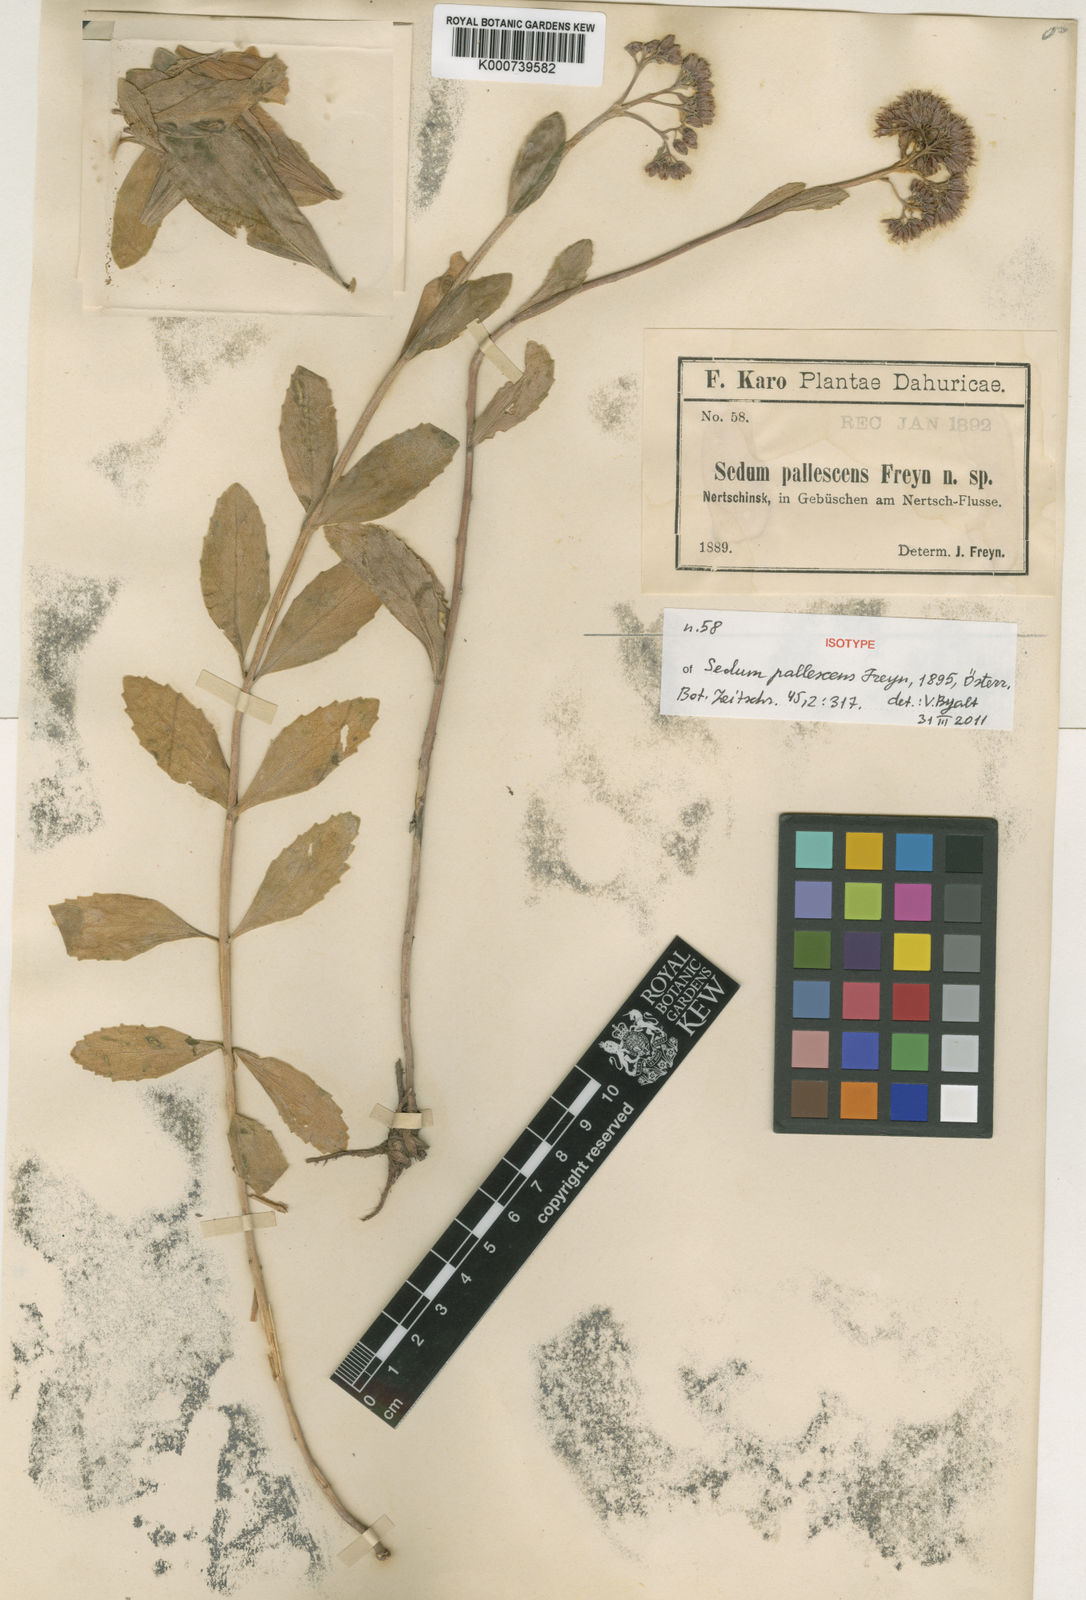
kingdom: Plantae
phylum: Tracheophyta
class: Magnoliopsida
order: Saxifragales
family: Crassulaceae
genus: Hylotelephium
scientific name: Hylotelephium pallescens
